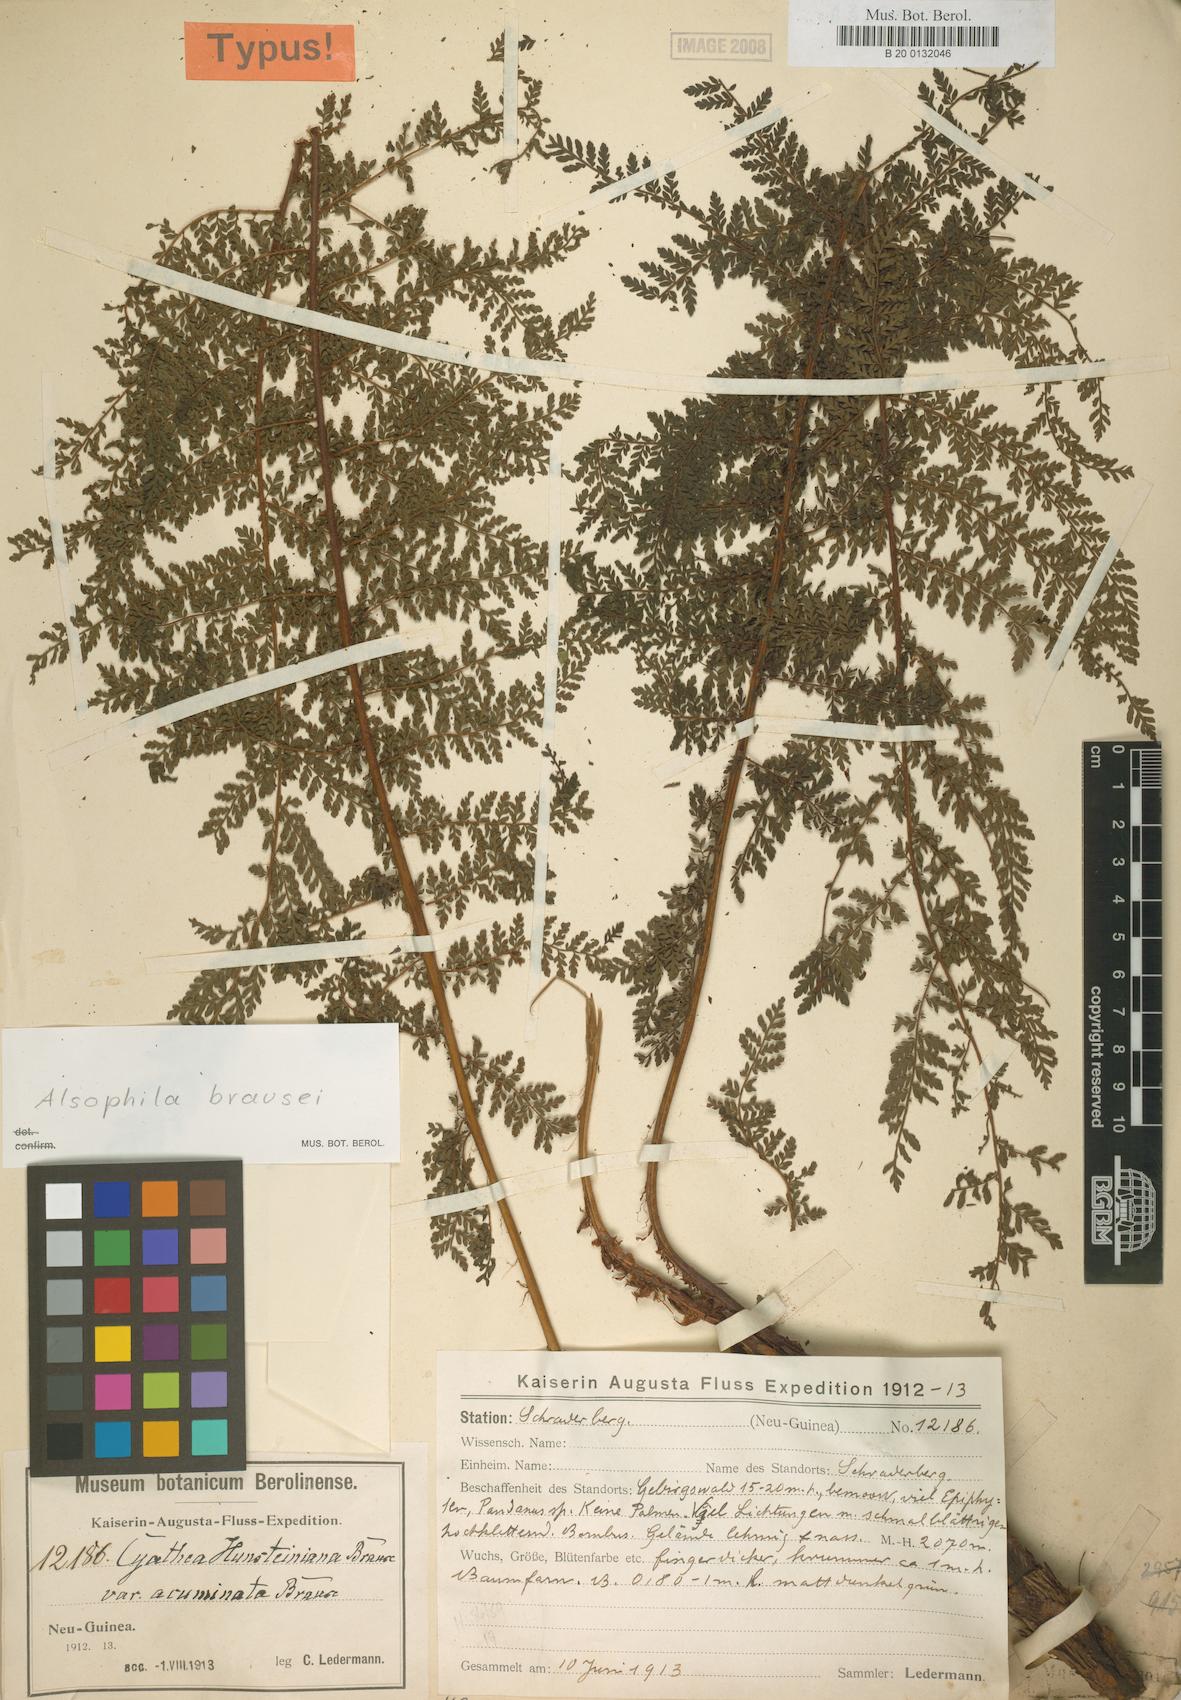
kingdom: Plantae
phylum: Tracheophyta
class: Polypodiopsida
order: Cyatheales
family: Cyatheaceae
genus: Alsophila
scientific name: Alsophila rubiginosa
